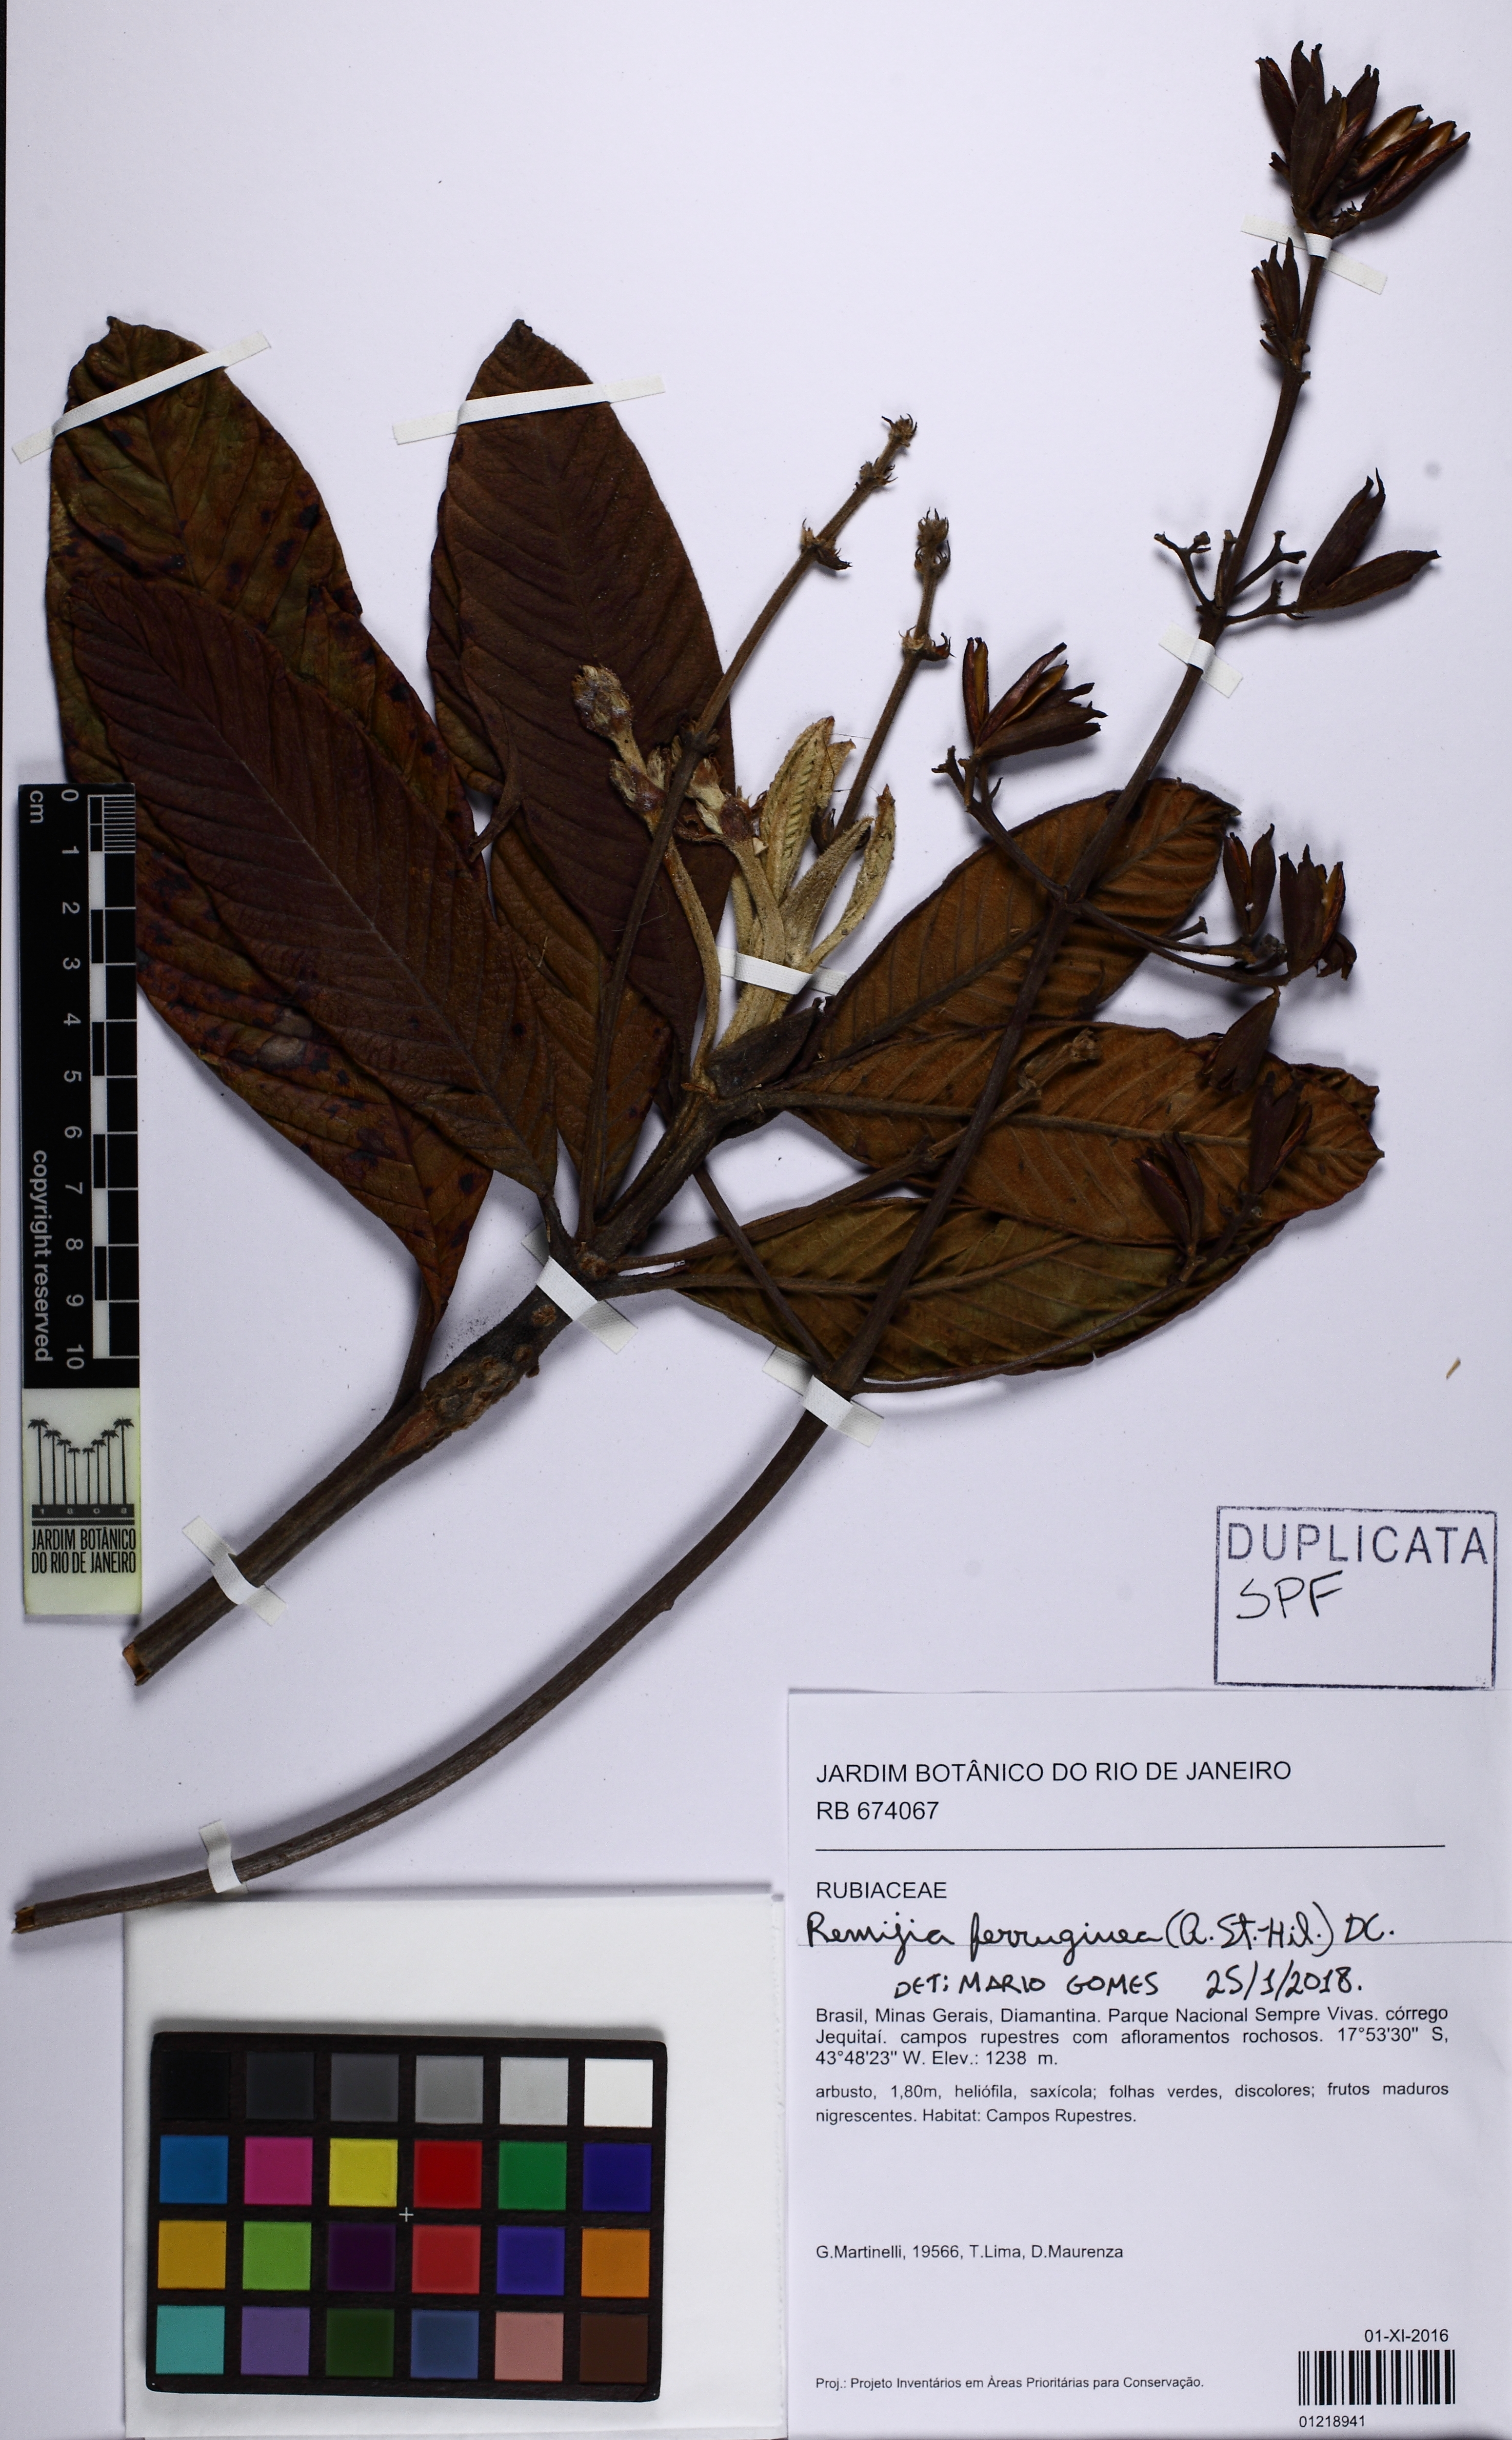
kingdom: Plantae
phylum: Tracheophyta
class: Magnoliopsida
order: Gentianales
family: Rubiaceae
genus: Remijia
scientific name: Remijia ferruginea
